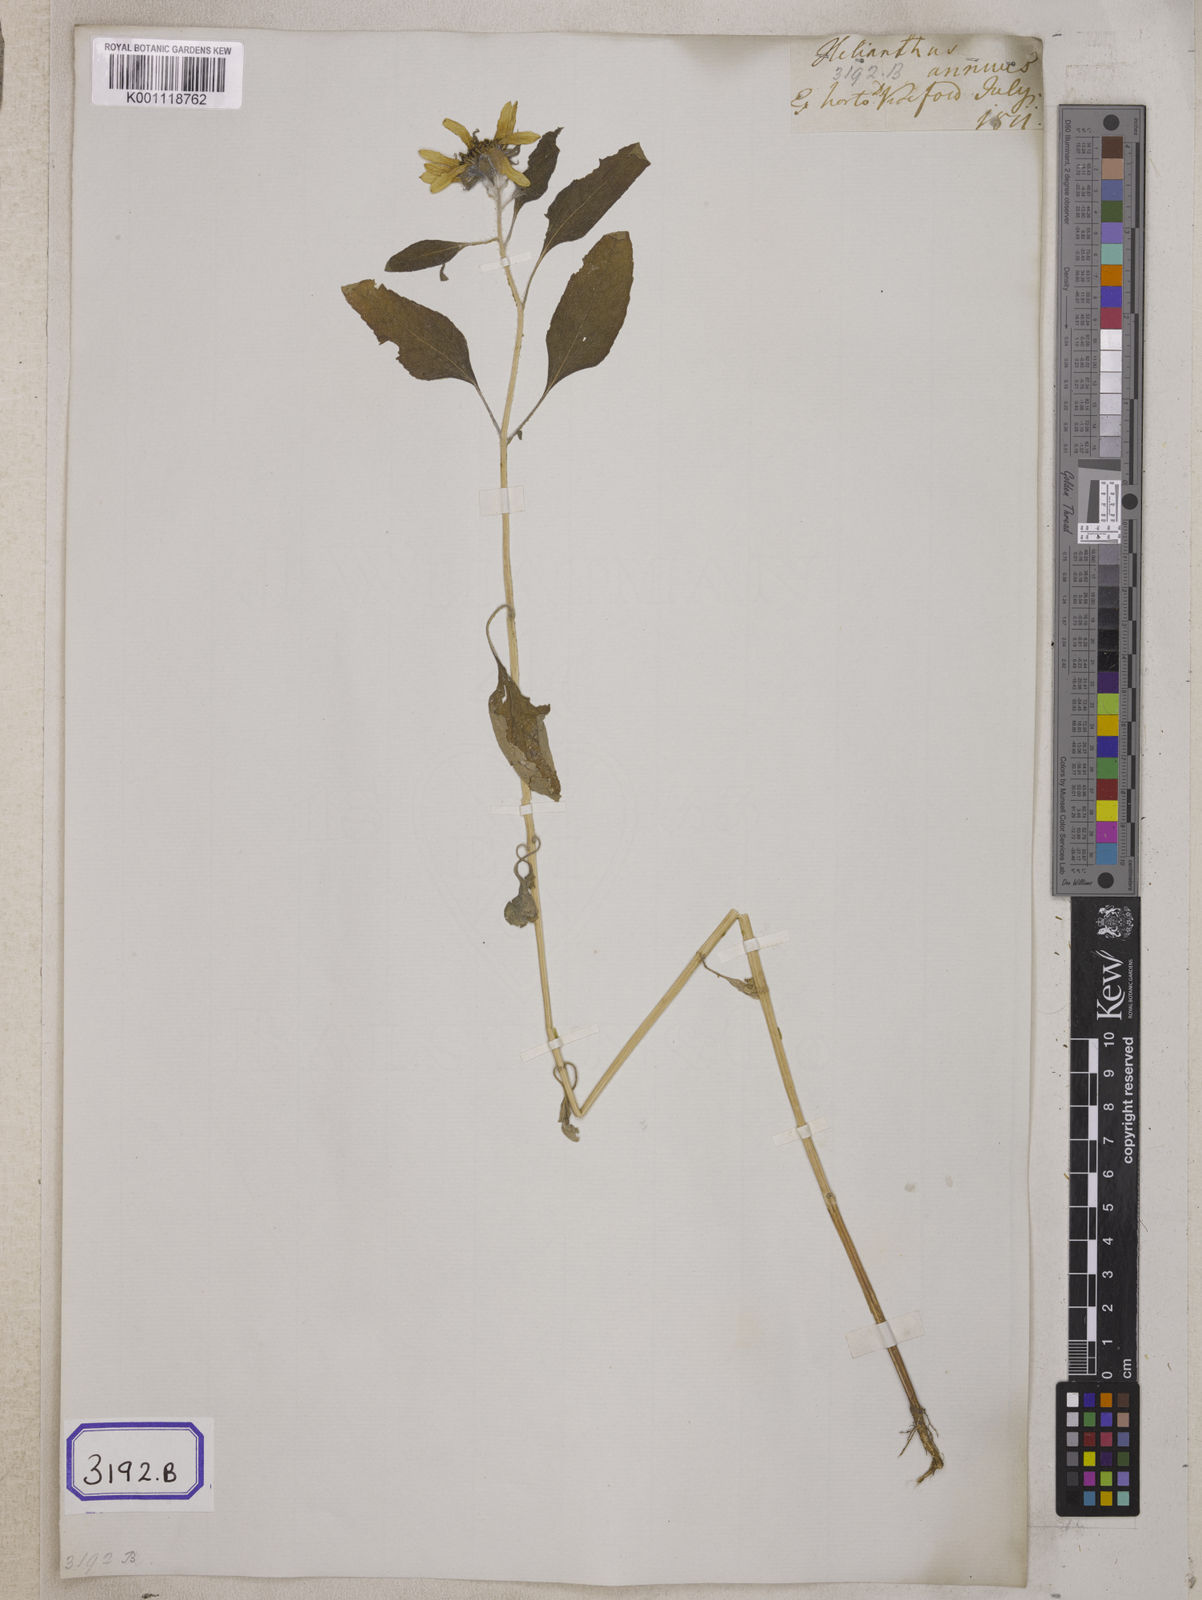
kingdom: Plantae
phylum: Tracheophyta
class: Magnoliopsida
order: Asterales
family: Asteraceae
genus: Helianthus
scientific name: Helianthus annuus
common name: Sunflower
